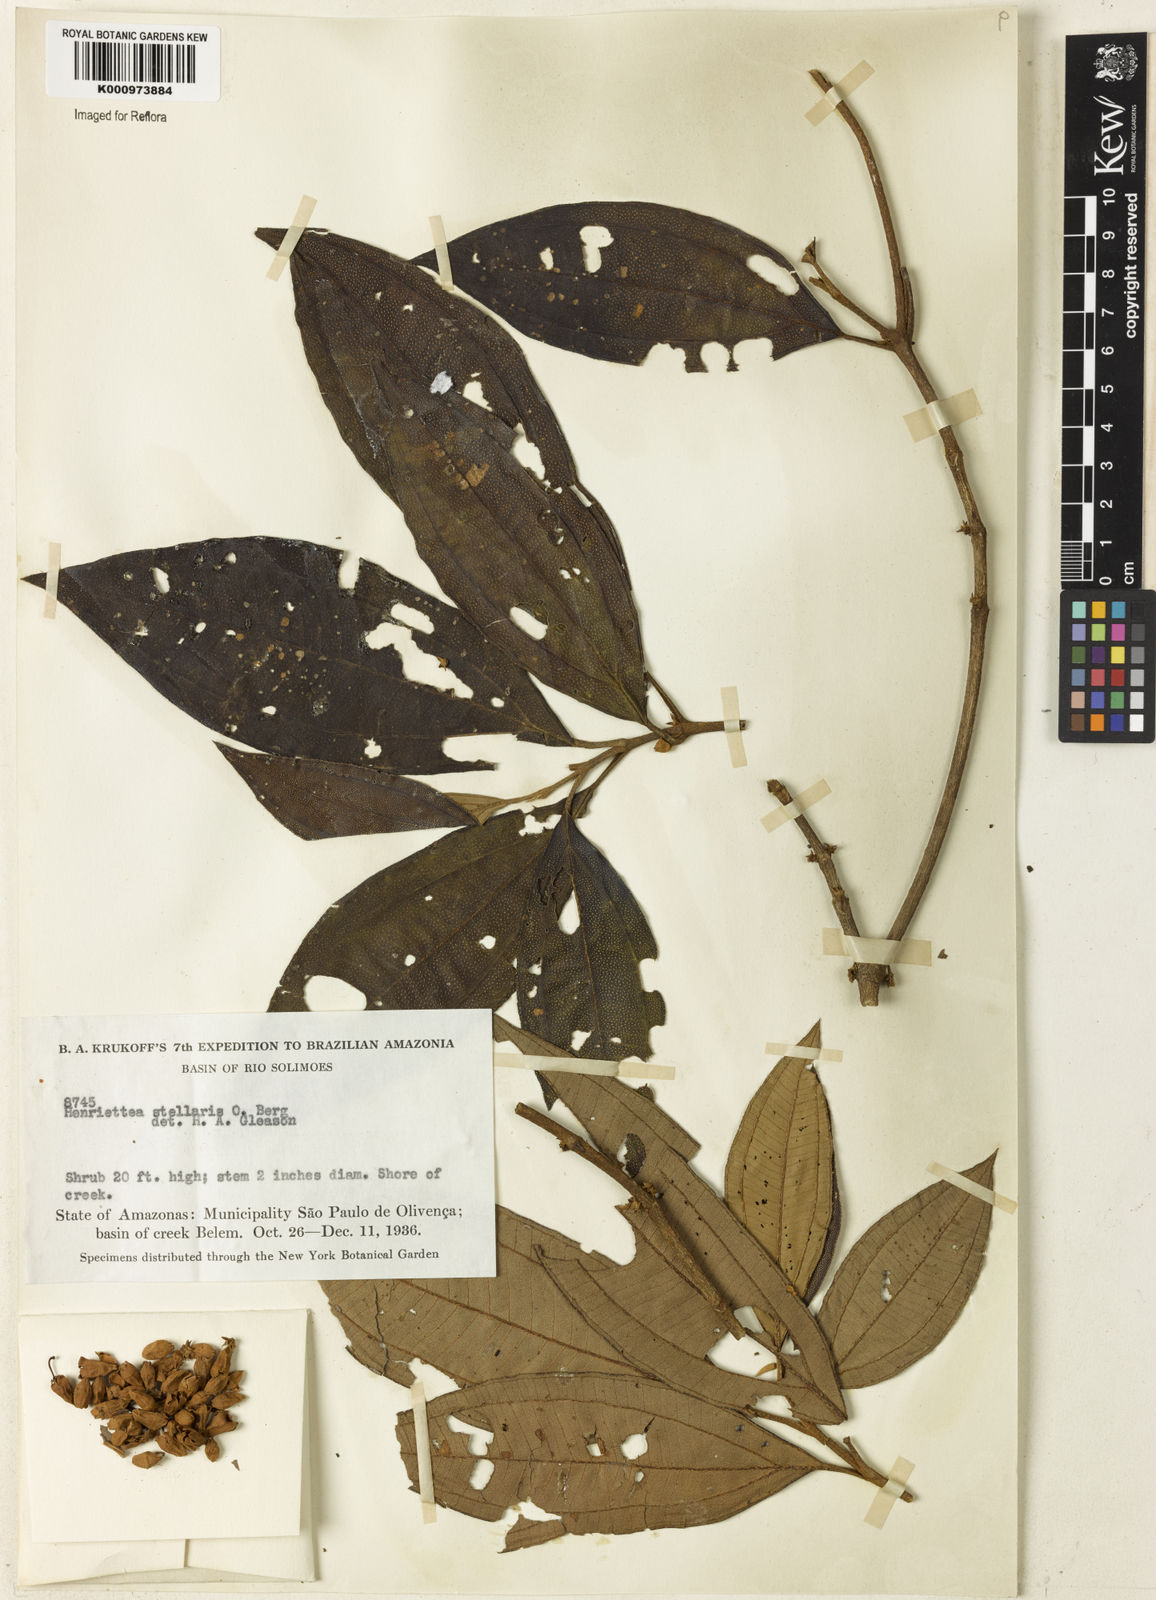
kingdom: Plantae
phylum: Tracheophyta
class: Magnoliopsida
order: Myrtales
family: Melastomataceae
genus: Henriettea
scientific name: Henriettea stellaris
